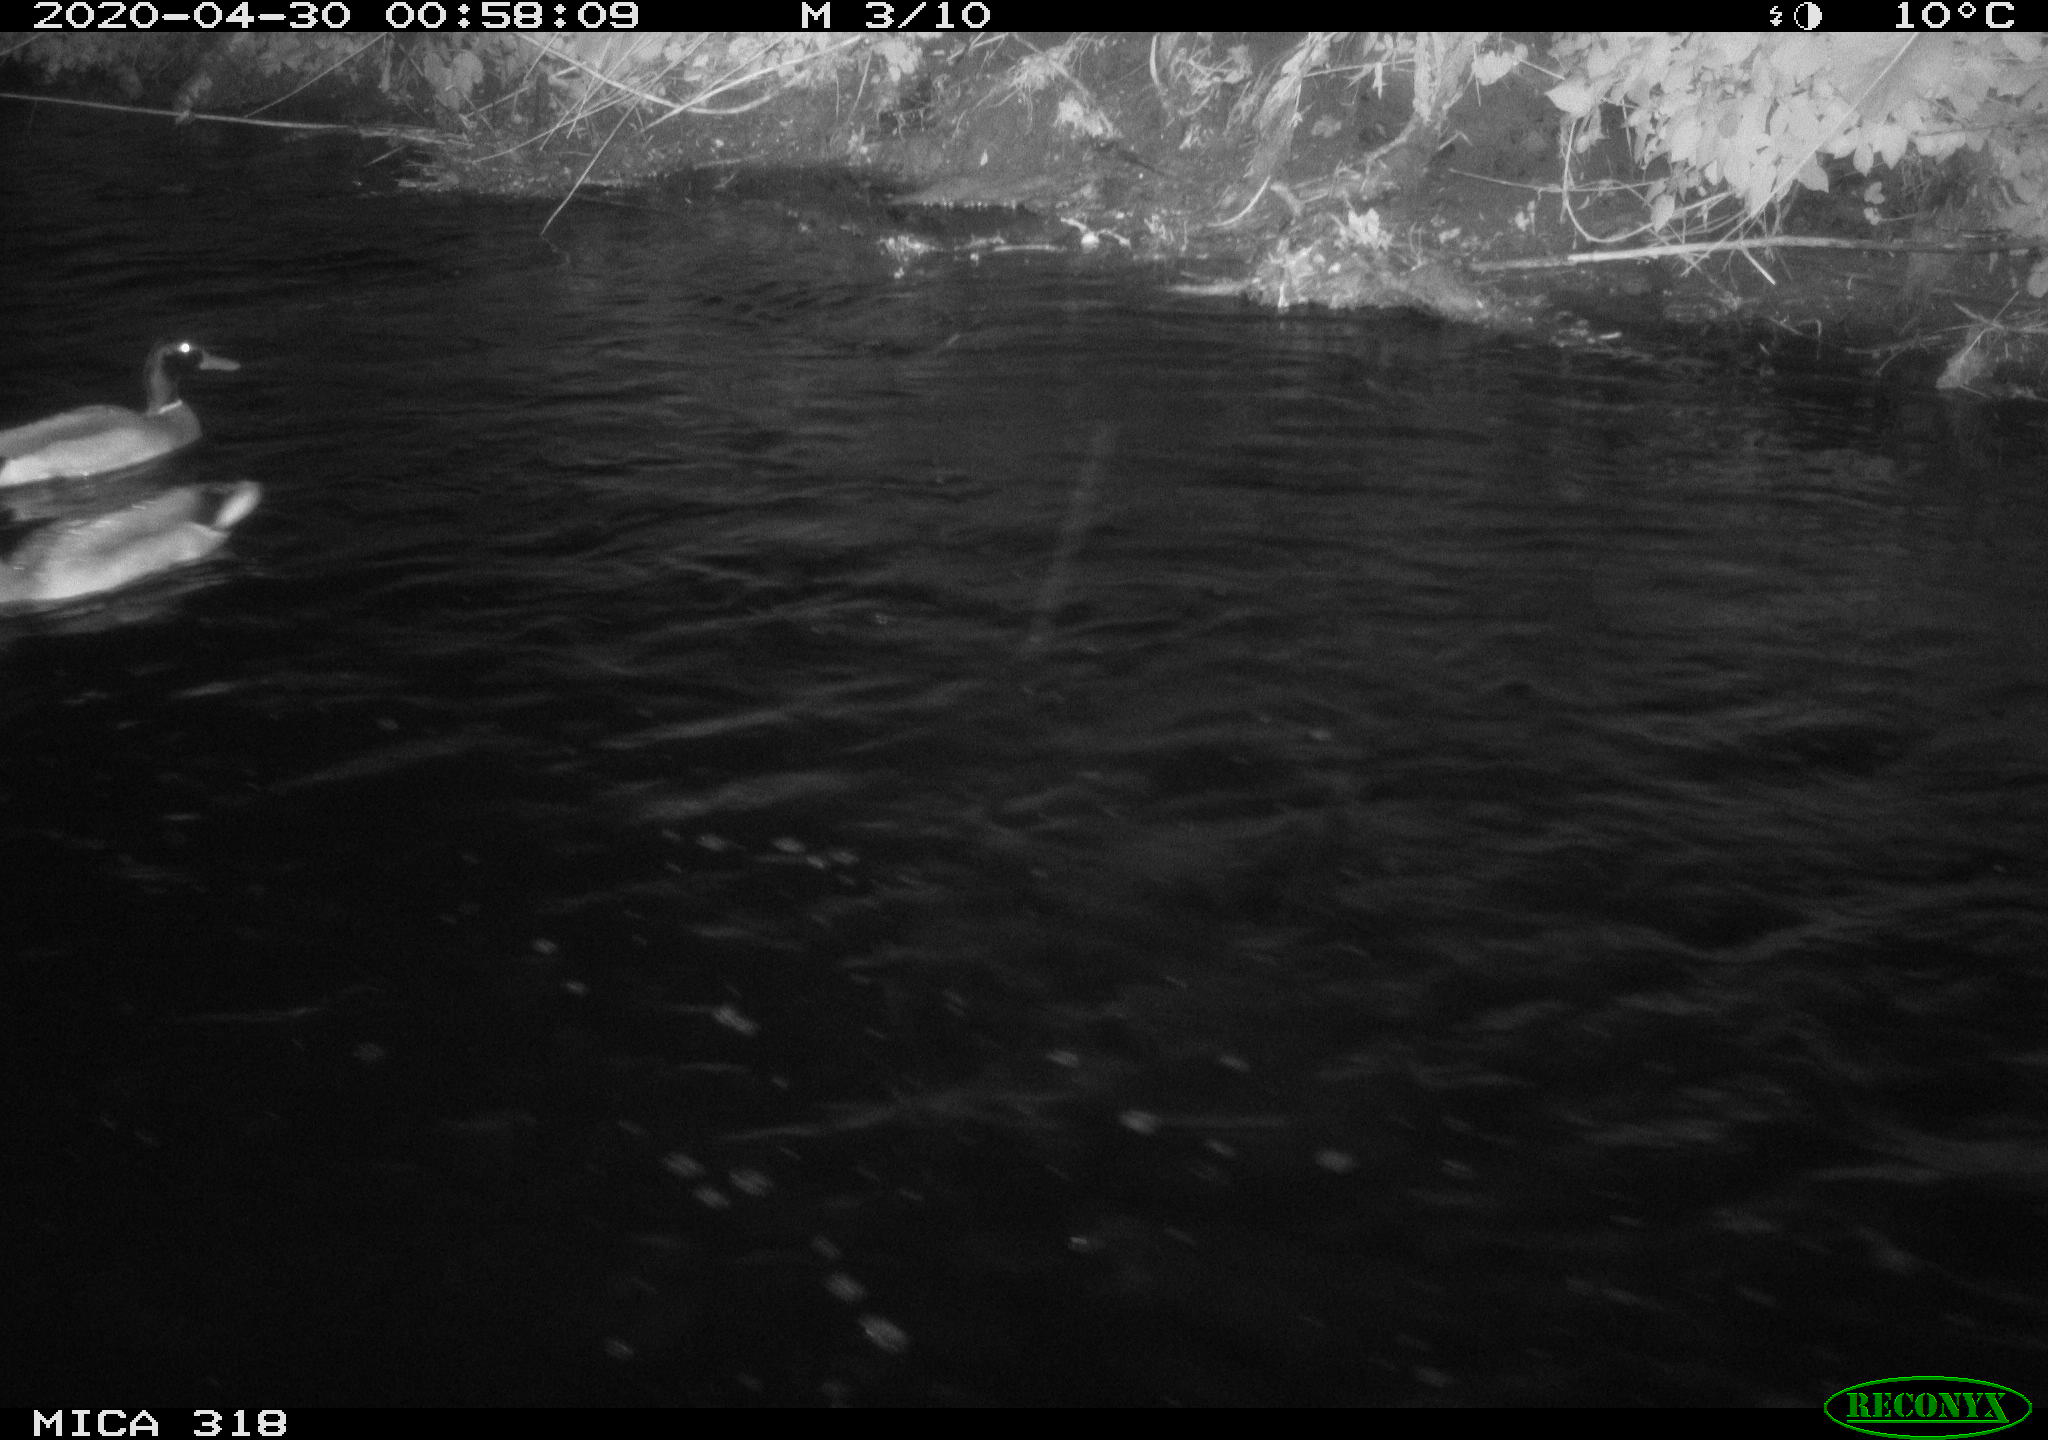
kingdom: Animalia
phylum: Chordata
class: Aves
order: Anseriformes
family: Anatidae
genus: Anas
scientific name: Anas platyrhynchos
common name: Mallard
